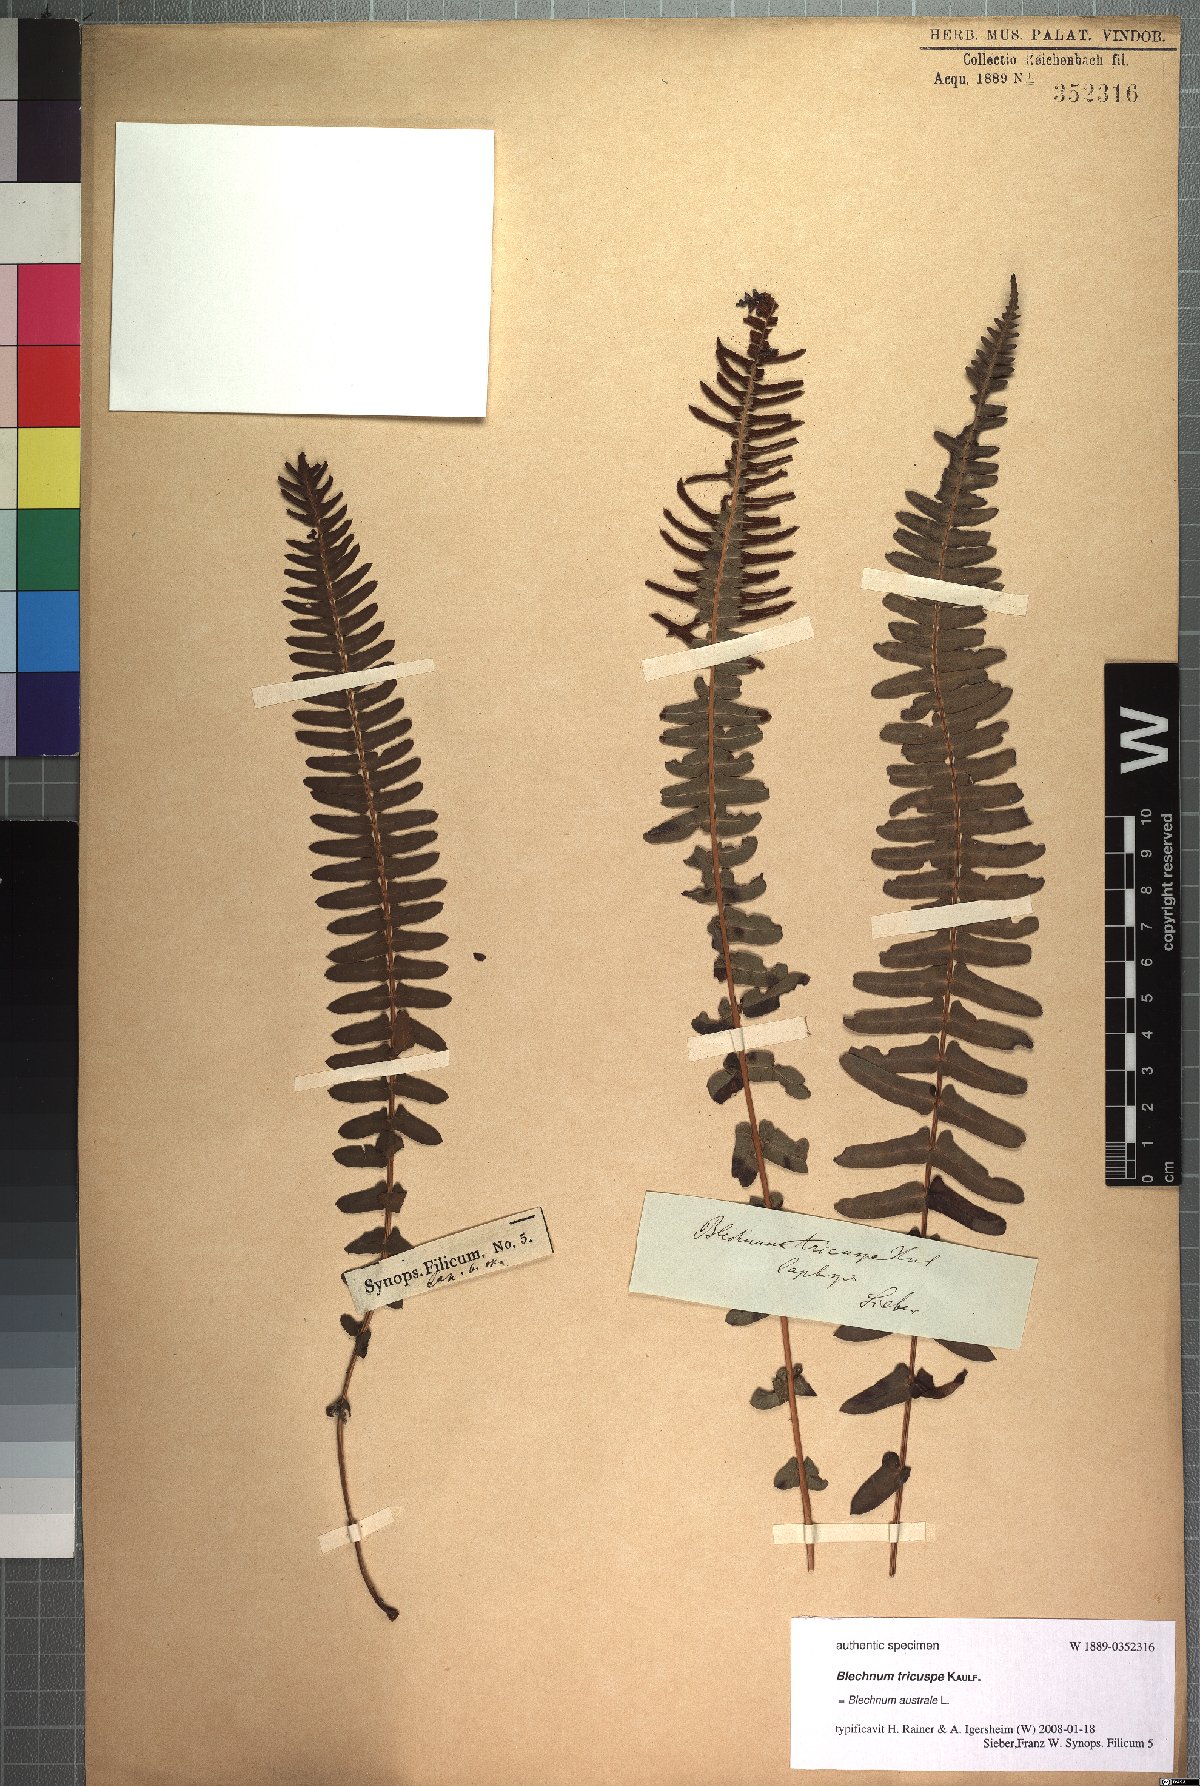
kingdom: Plantae
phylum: Tracheophyta
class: Polypodiopsida
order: Polypodiales
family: Blechnaceae
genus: Blechnum
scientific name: Blechnum australe
